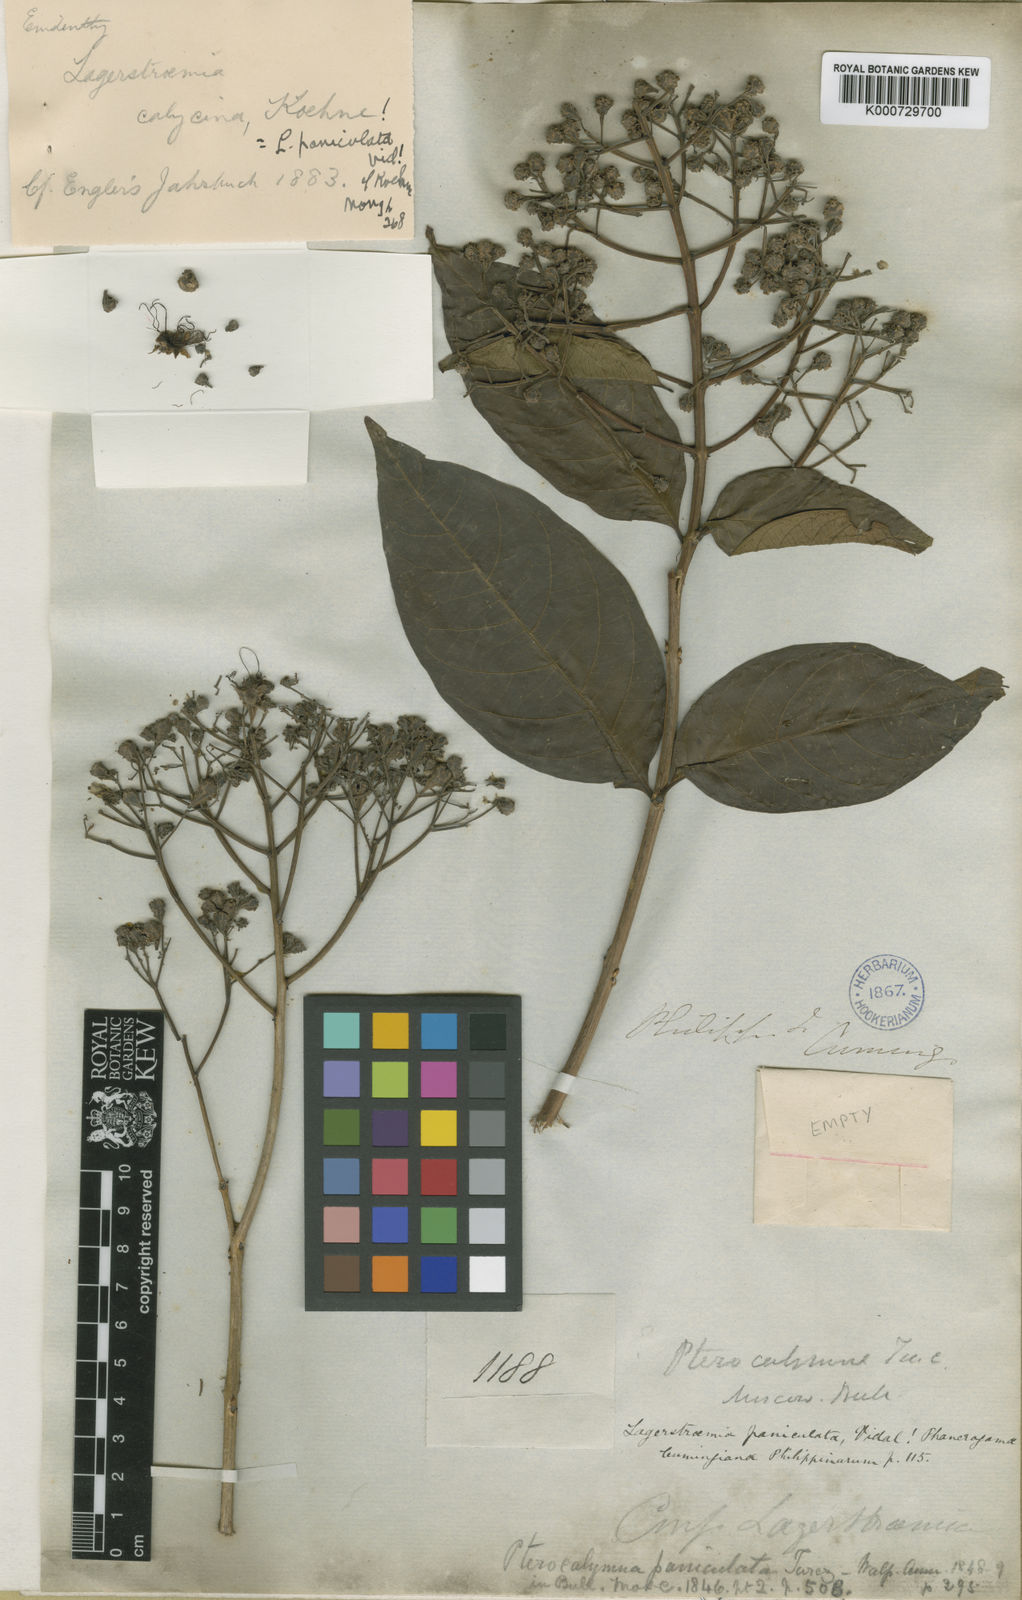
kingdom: Plantae
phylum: Tracheophyta
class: Magnoliopsida
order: Myrtales
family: Lythraceae
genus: Lagerstroemia
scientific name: Lagerstroemia paniculata
